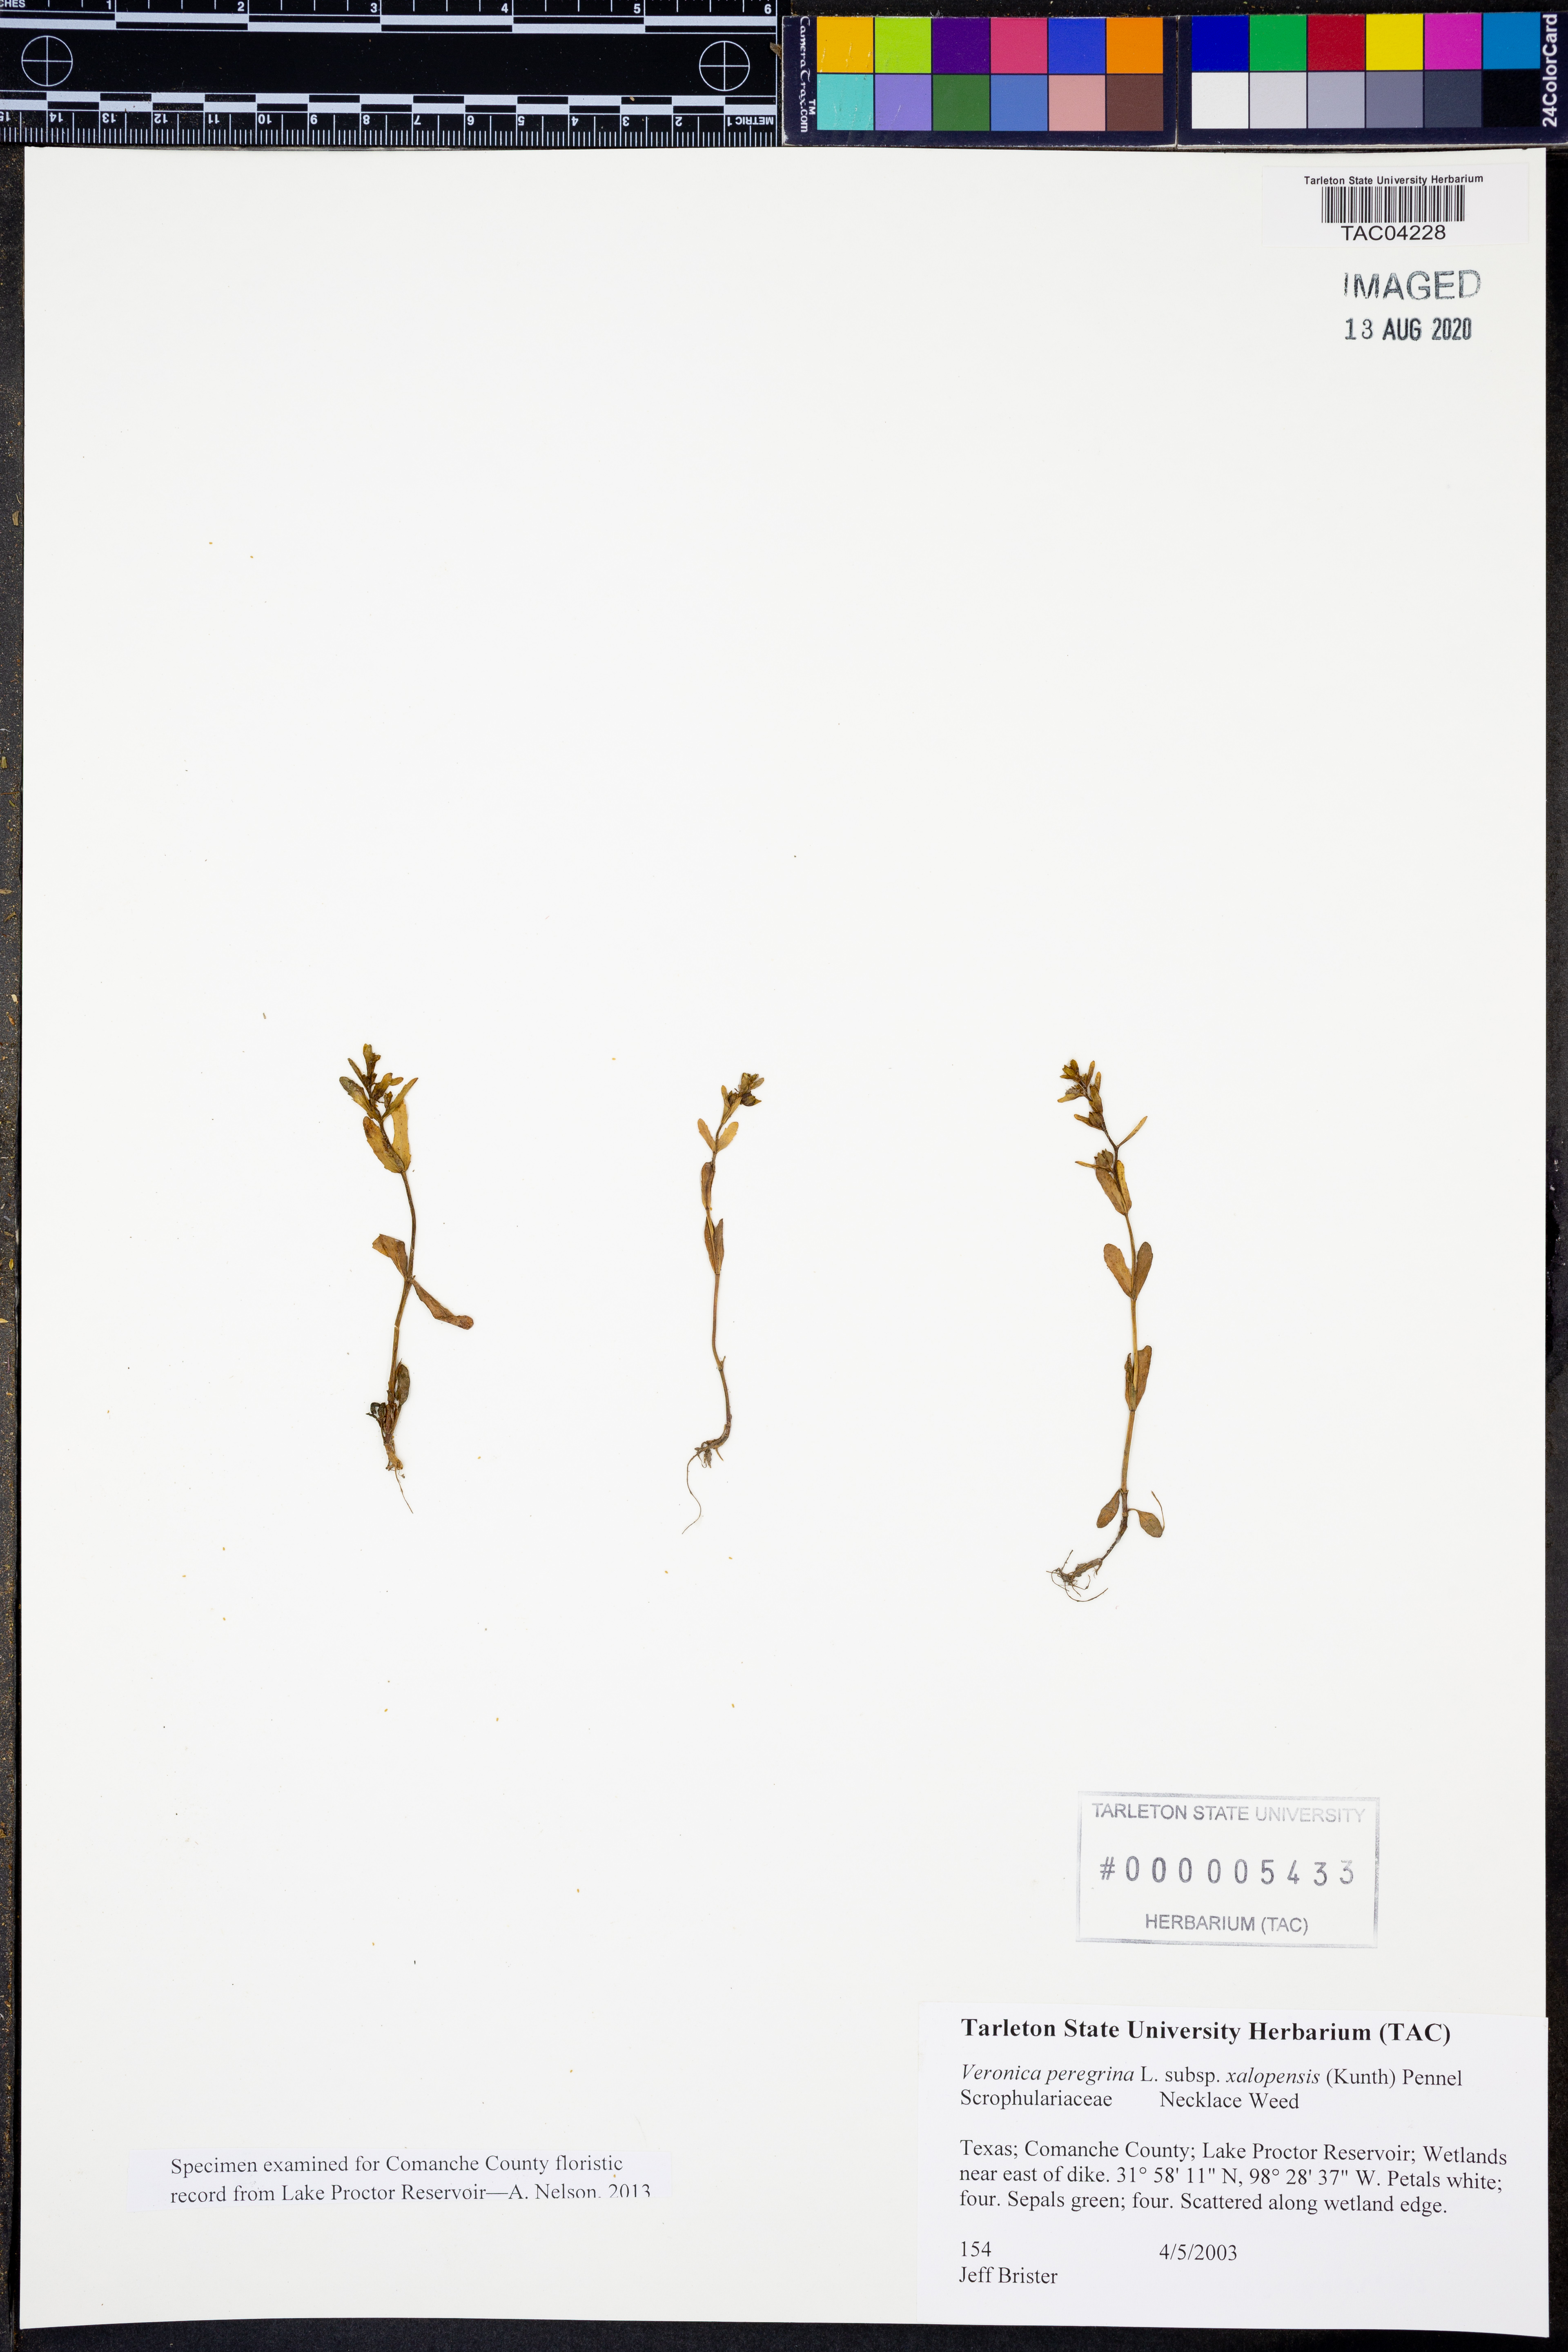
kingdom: Plantae
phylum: Tracheophyta
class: Magnoliopsida
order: Lamiales
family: Plantaginaceae
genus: Veronica
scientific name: Veronica peregrina
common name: Neckweed
